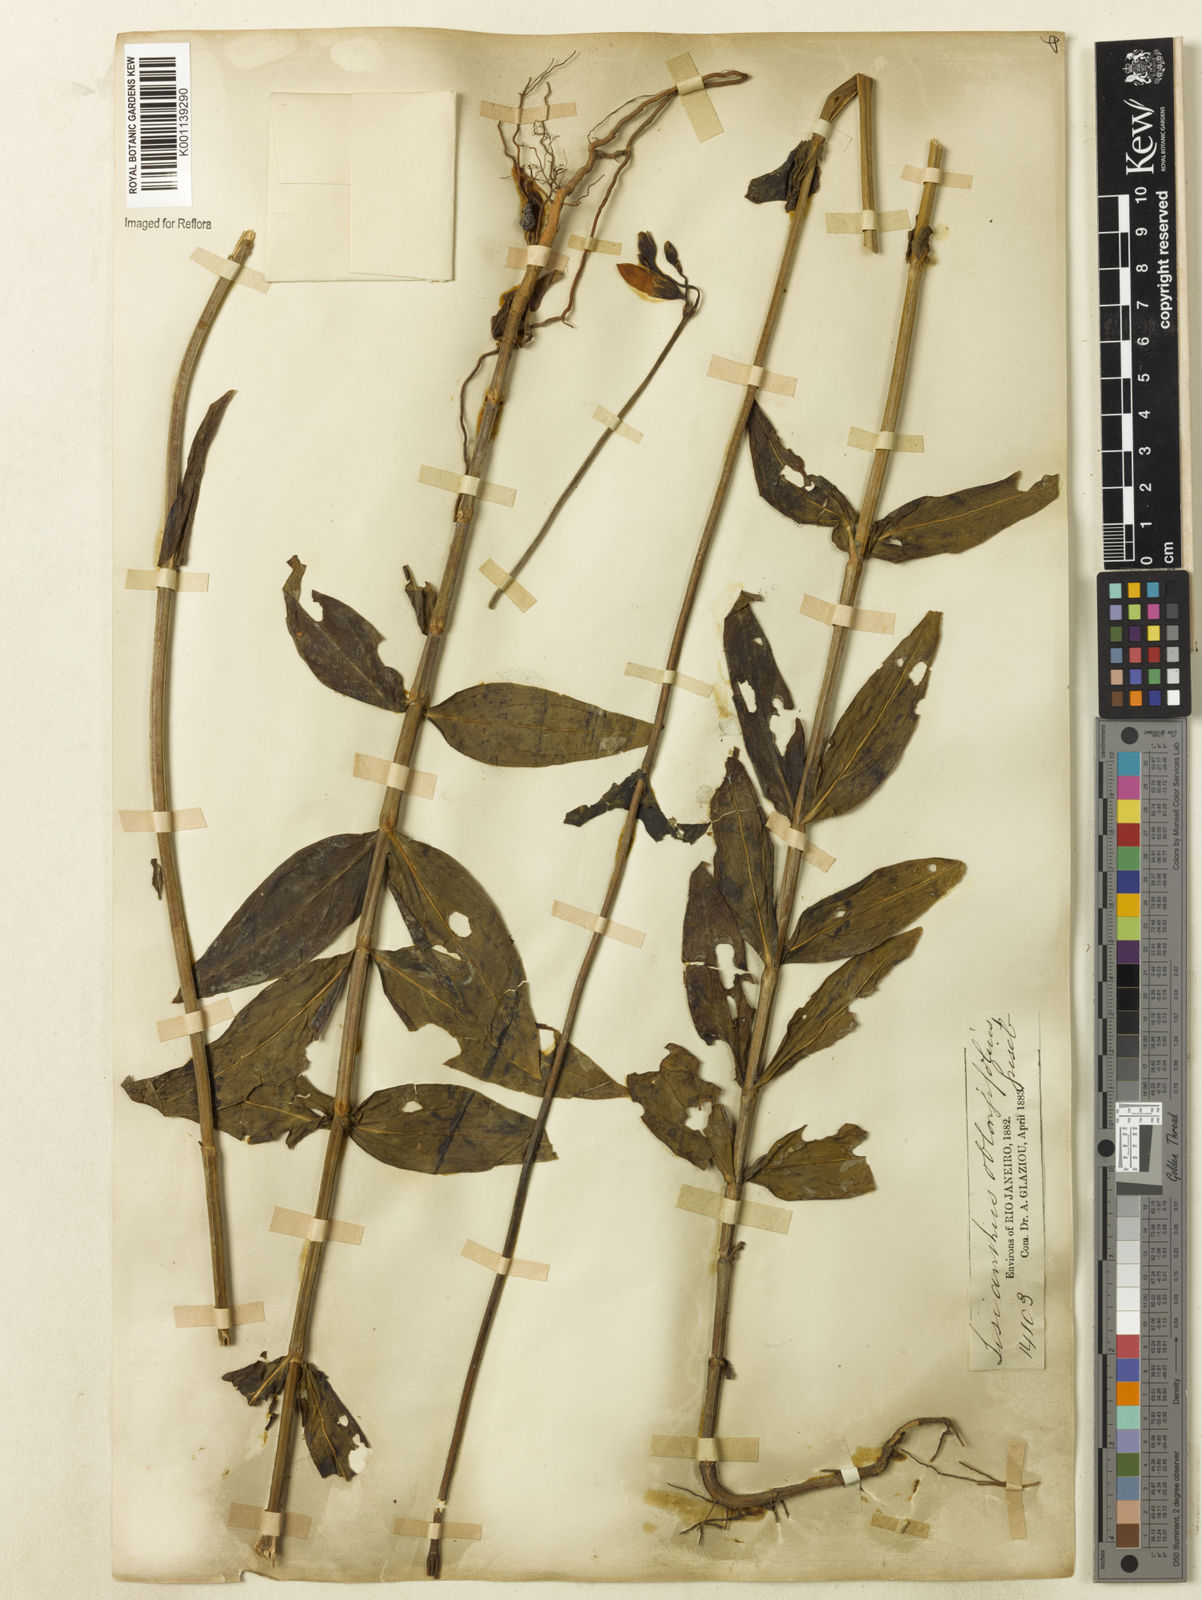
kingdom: Plantae
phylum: Tracheophyta
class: Magnoliopsida
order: Gentianales
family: Gentianaceae
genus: Chelonanthus
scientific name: Chelonanthus purpurascens
